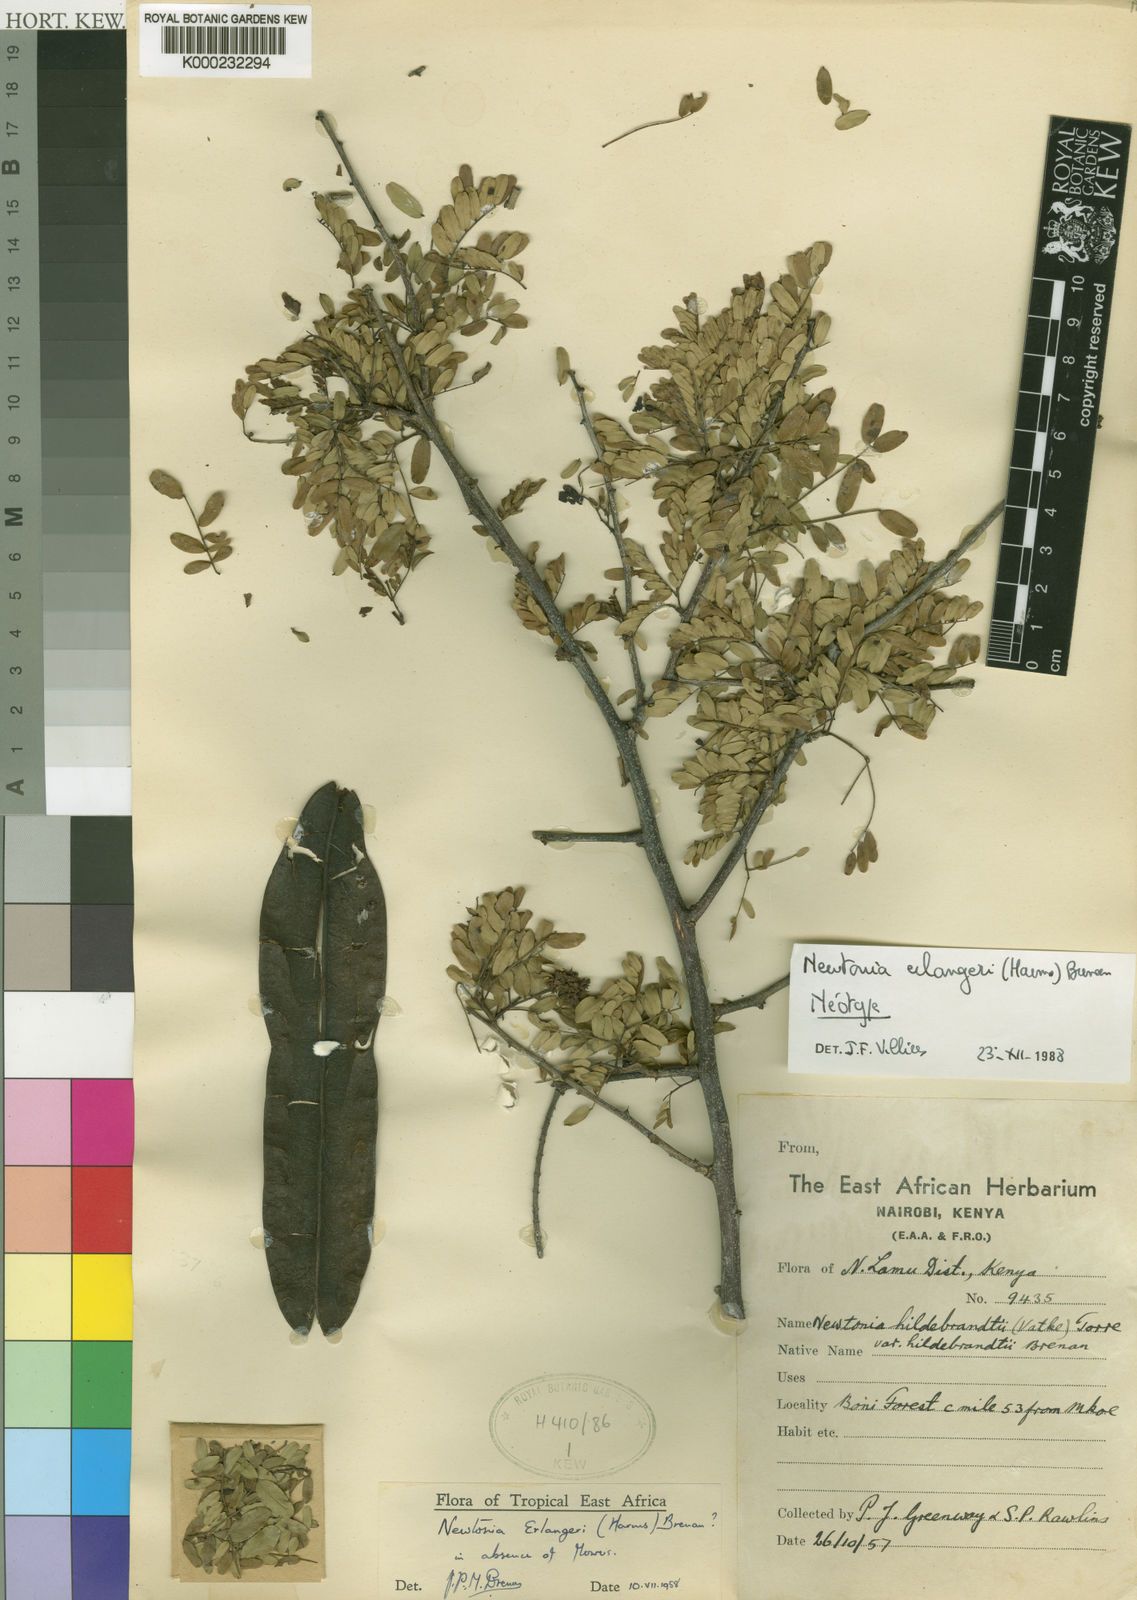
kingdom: Plantae
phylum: Tracheophyta
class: Magnoliopsida
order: Fabales
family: Fabaceae
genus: Newtonia
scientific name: Newtonia erlangeri
